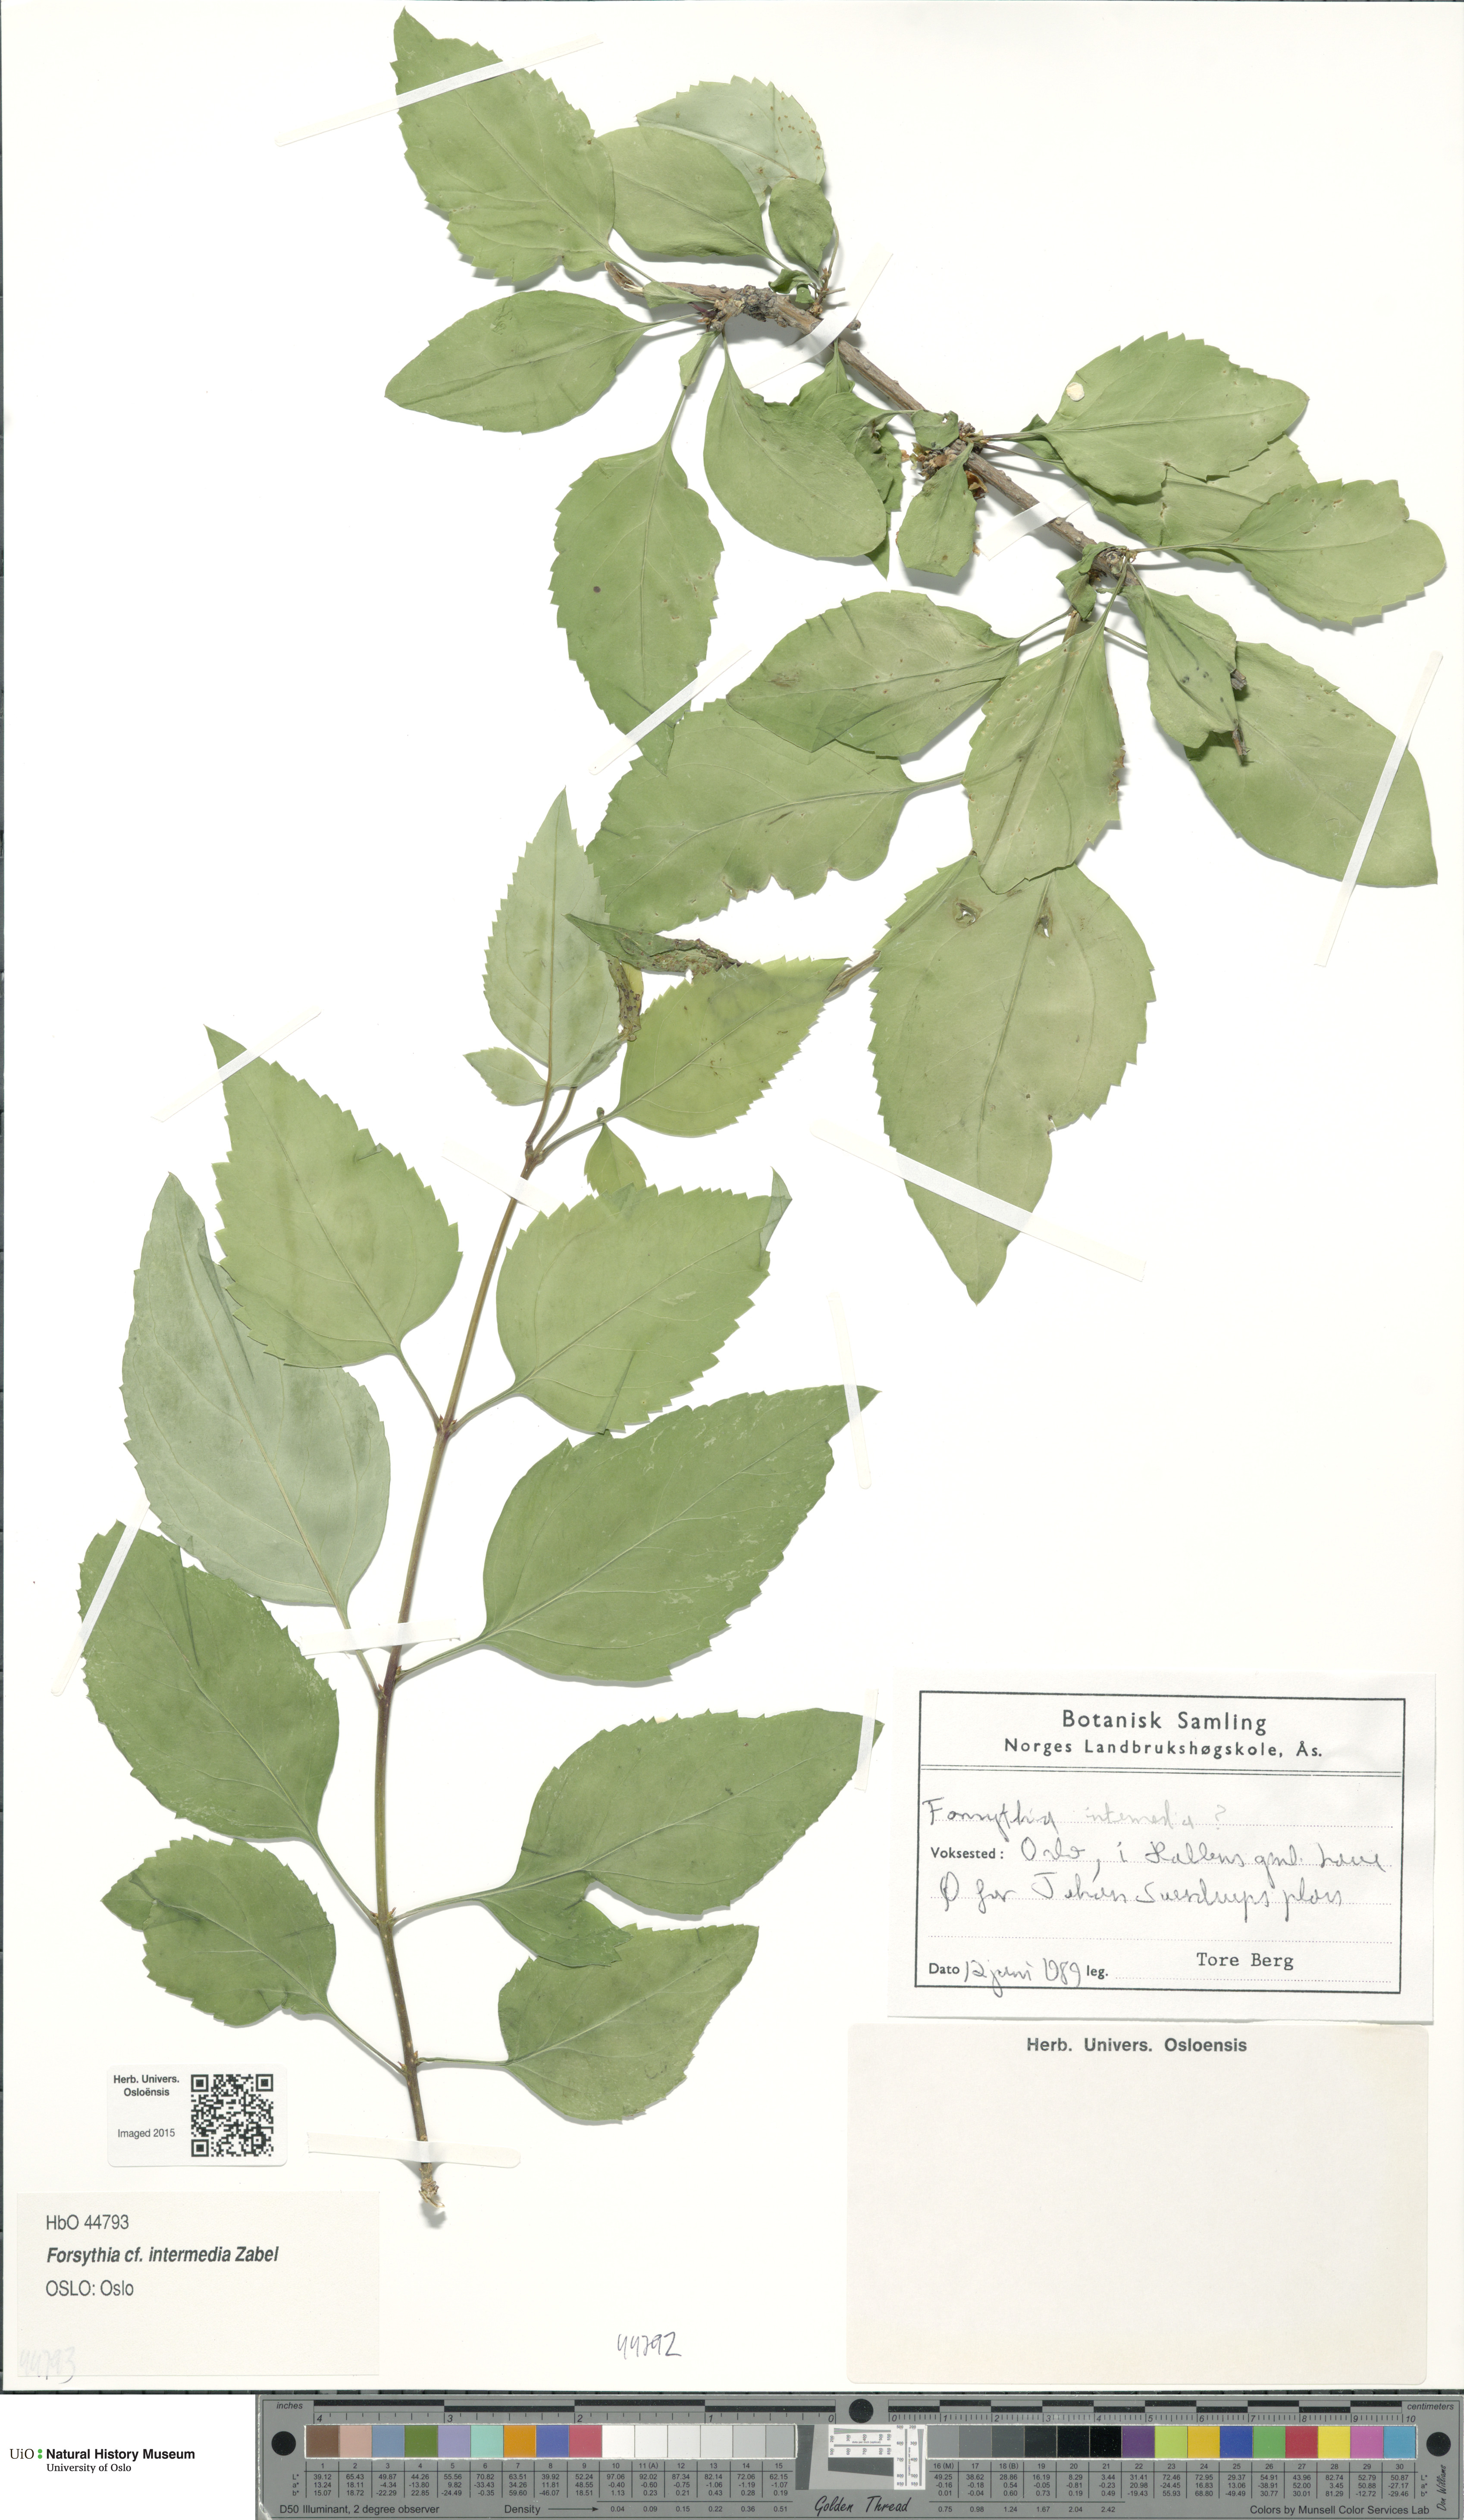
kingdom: Plantae
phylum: Tracheophyta
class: Magnoliopsida
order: Lamiales
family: Oleaceae
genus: Forsythia
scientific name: Forsythia intermedia
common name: Forsythia
